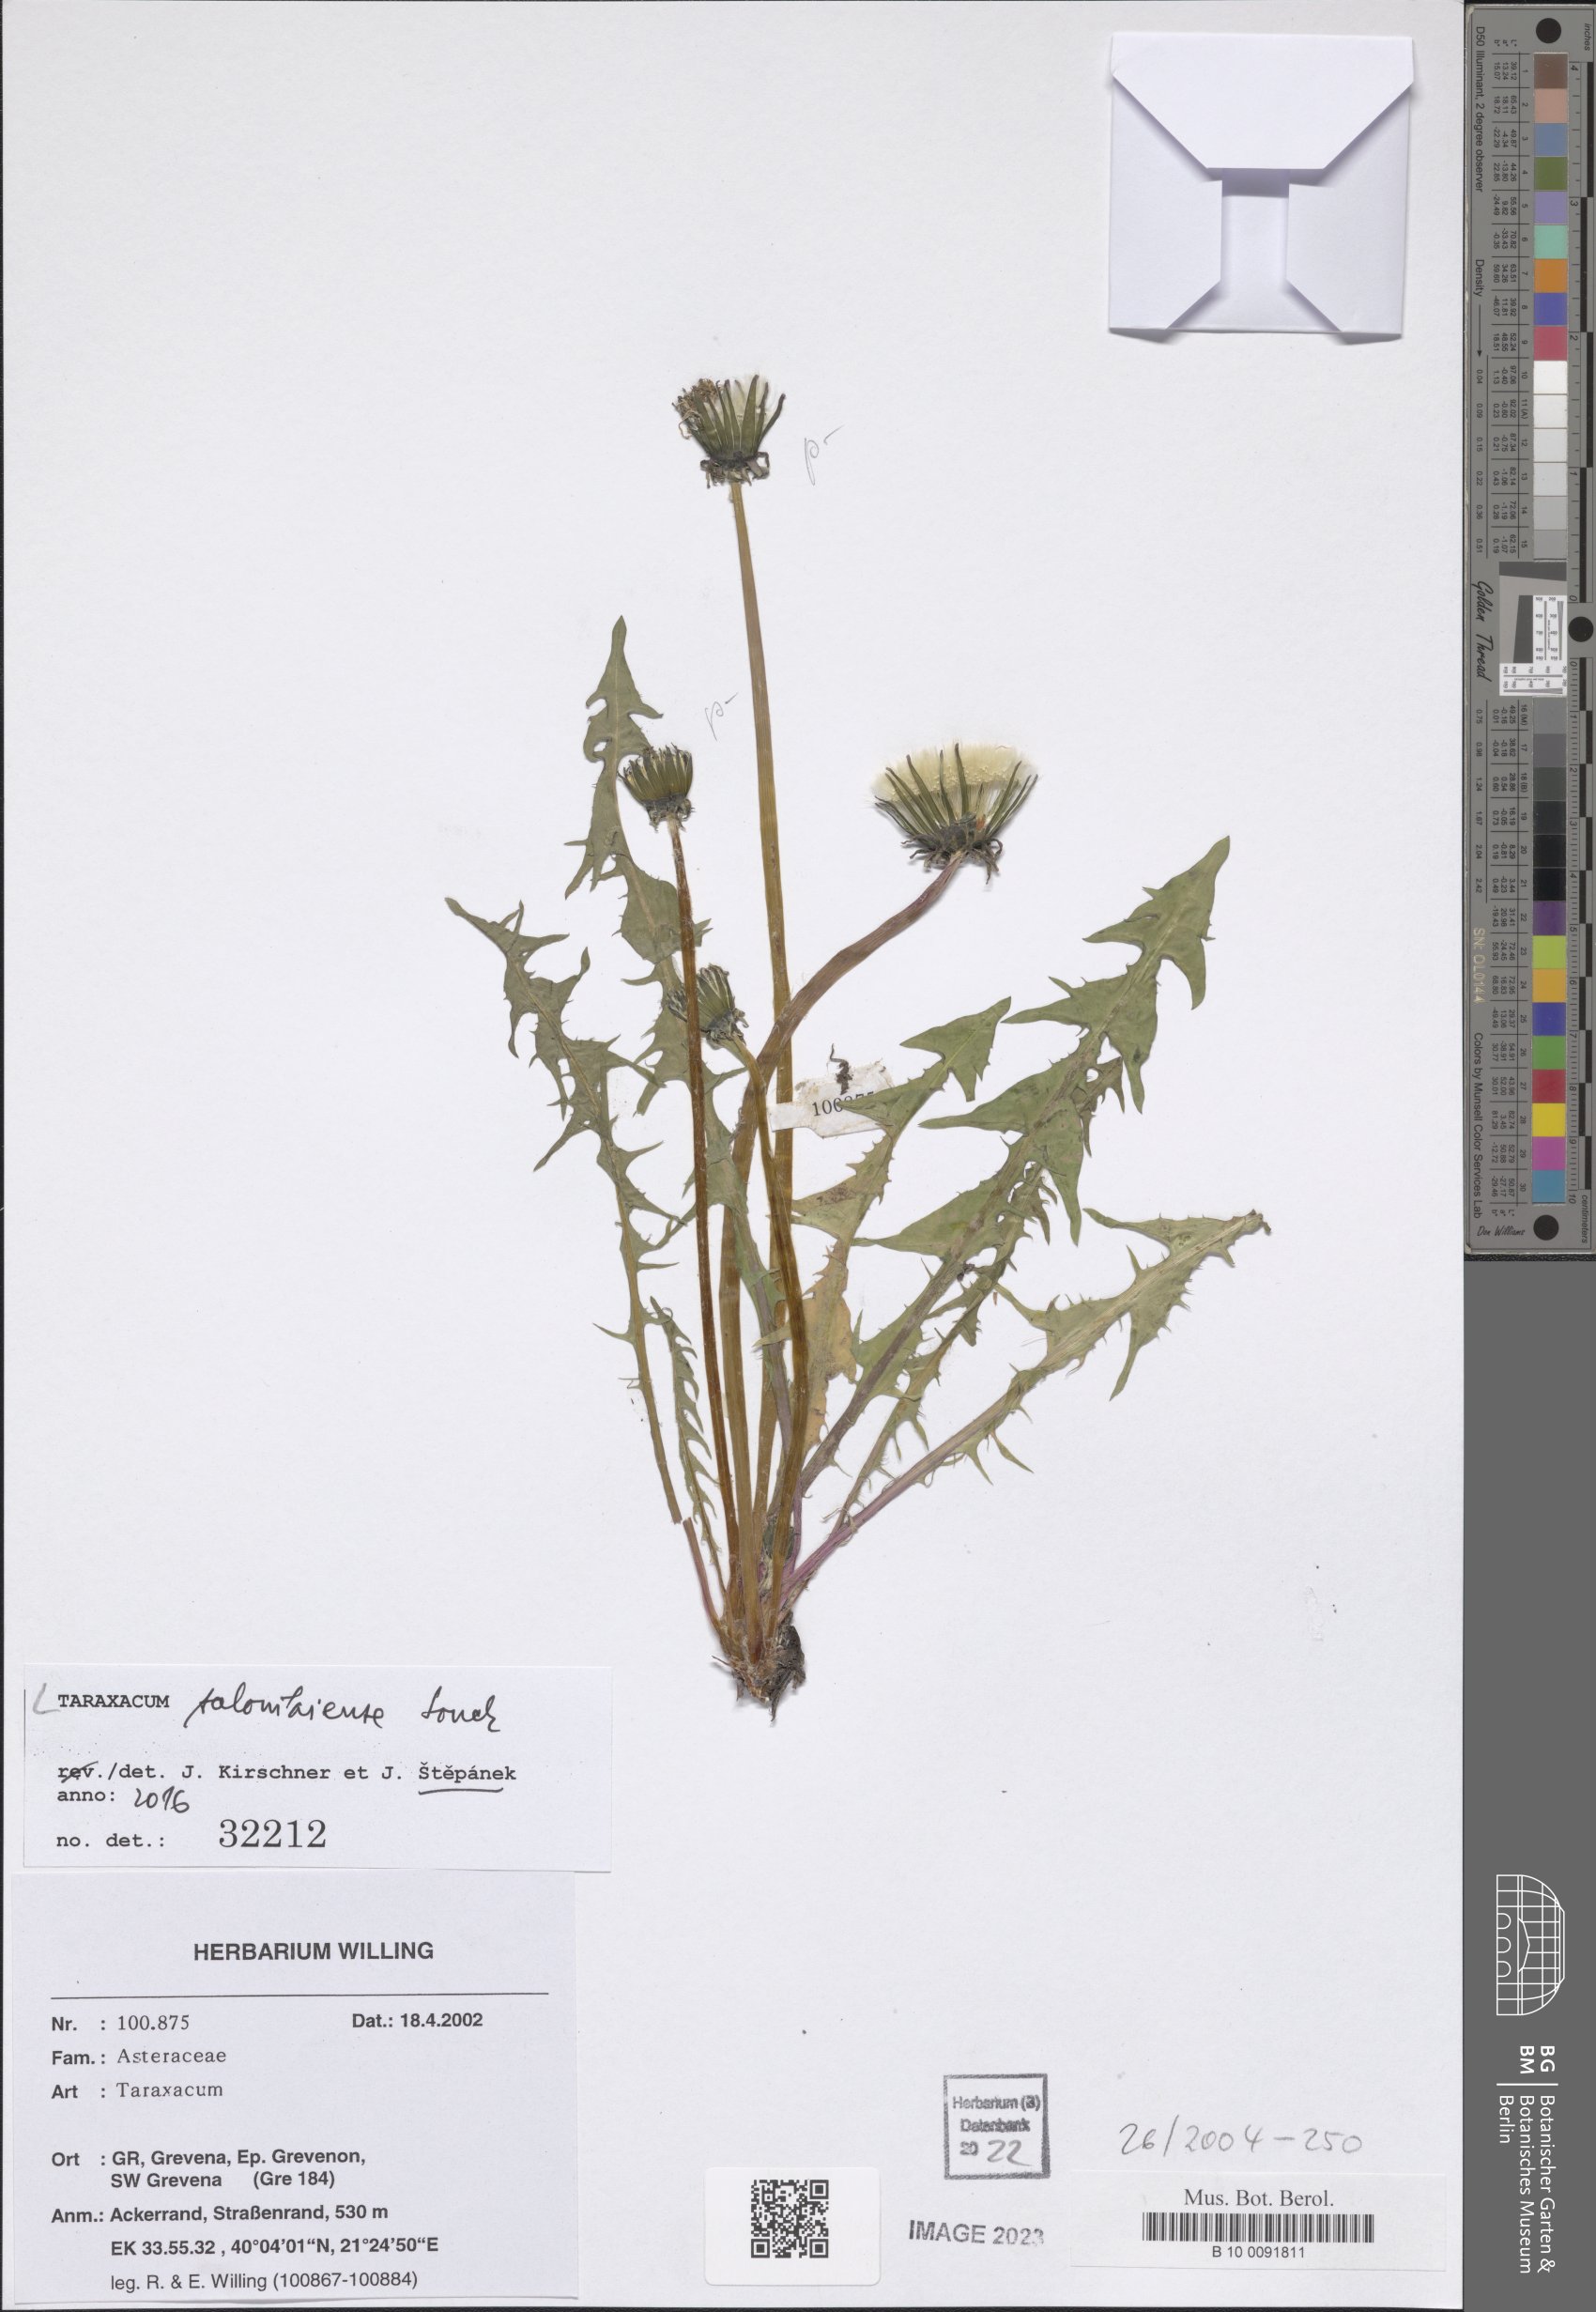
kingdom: Plantae
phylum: Tracheophyta
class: Magnoliopsida
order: Asterales
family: Asteraceae
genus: Taraxacum
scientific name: Taraxacum salonikiense
